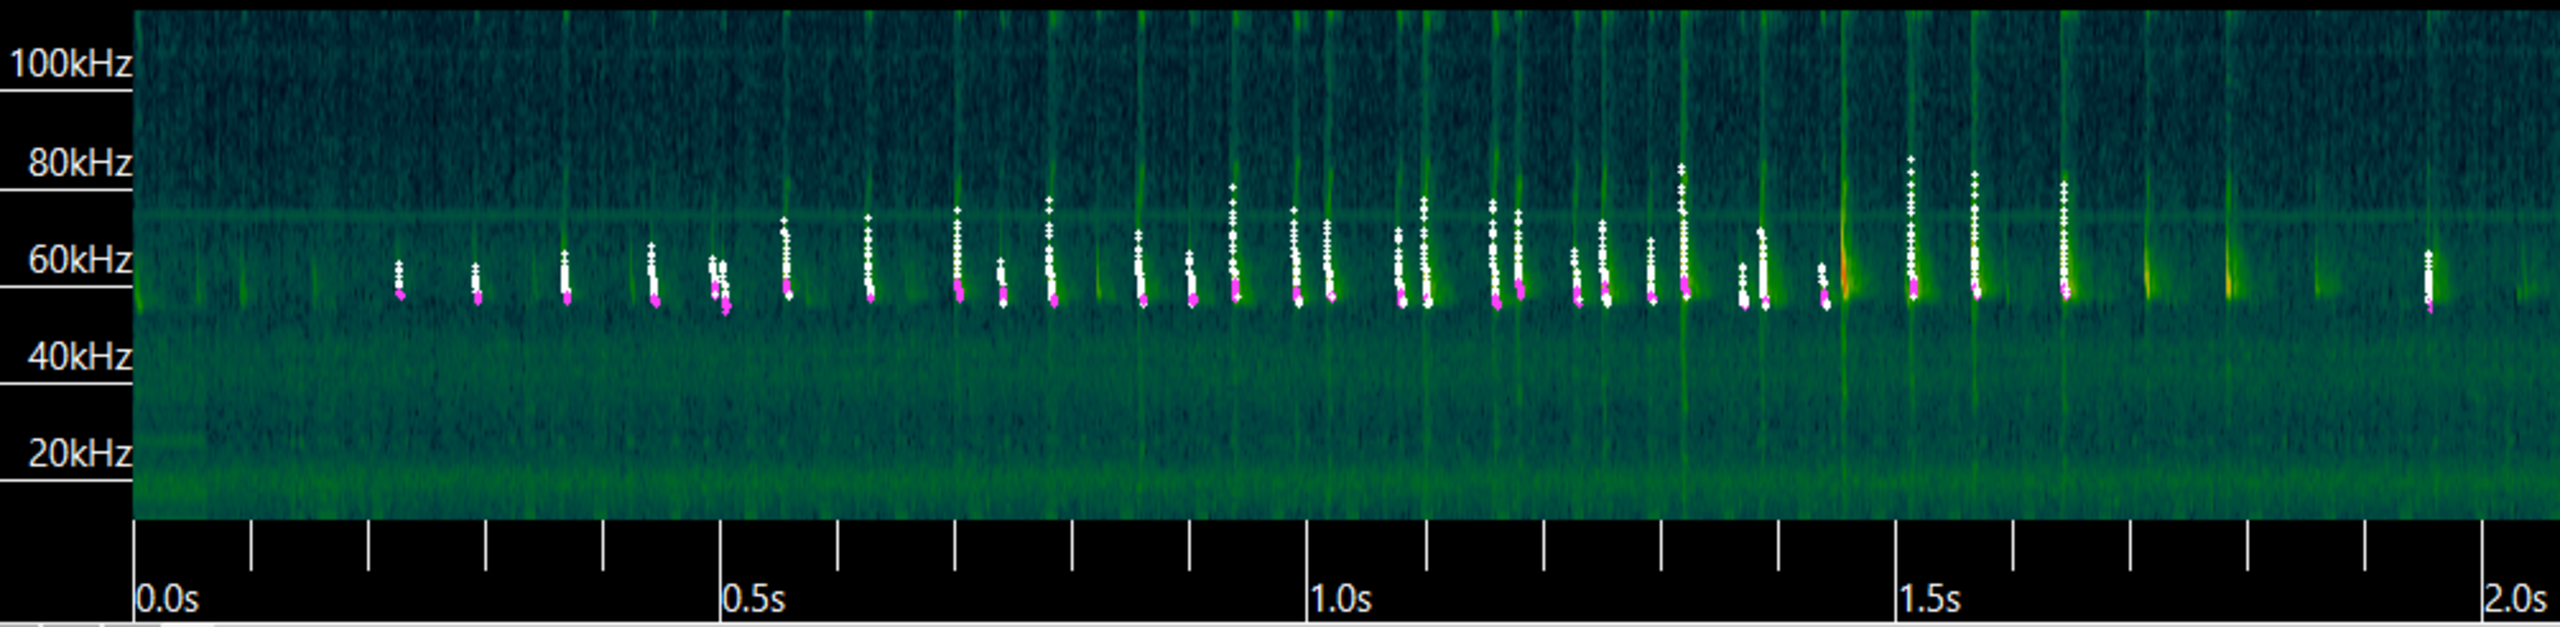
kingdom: Animalia
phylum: Chordata
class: Mammalia
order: Chiroptera
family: Vespertilionidae
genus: Pipistrellus
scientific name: Pipistrellus pygmaeus
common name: Dværgflagermus
